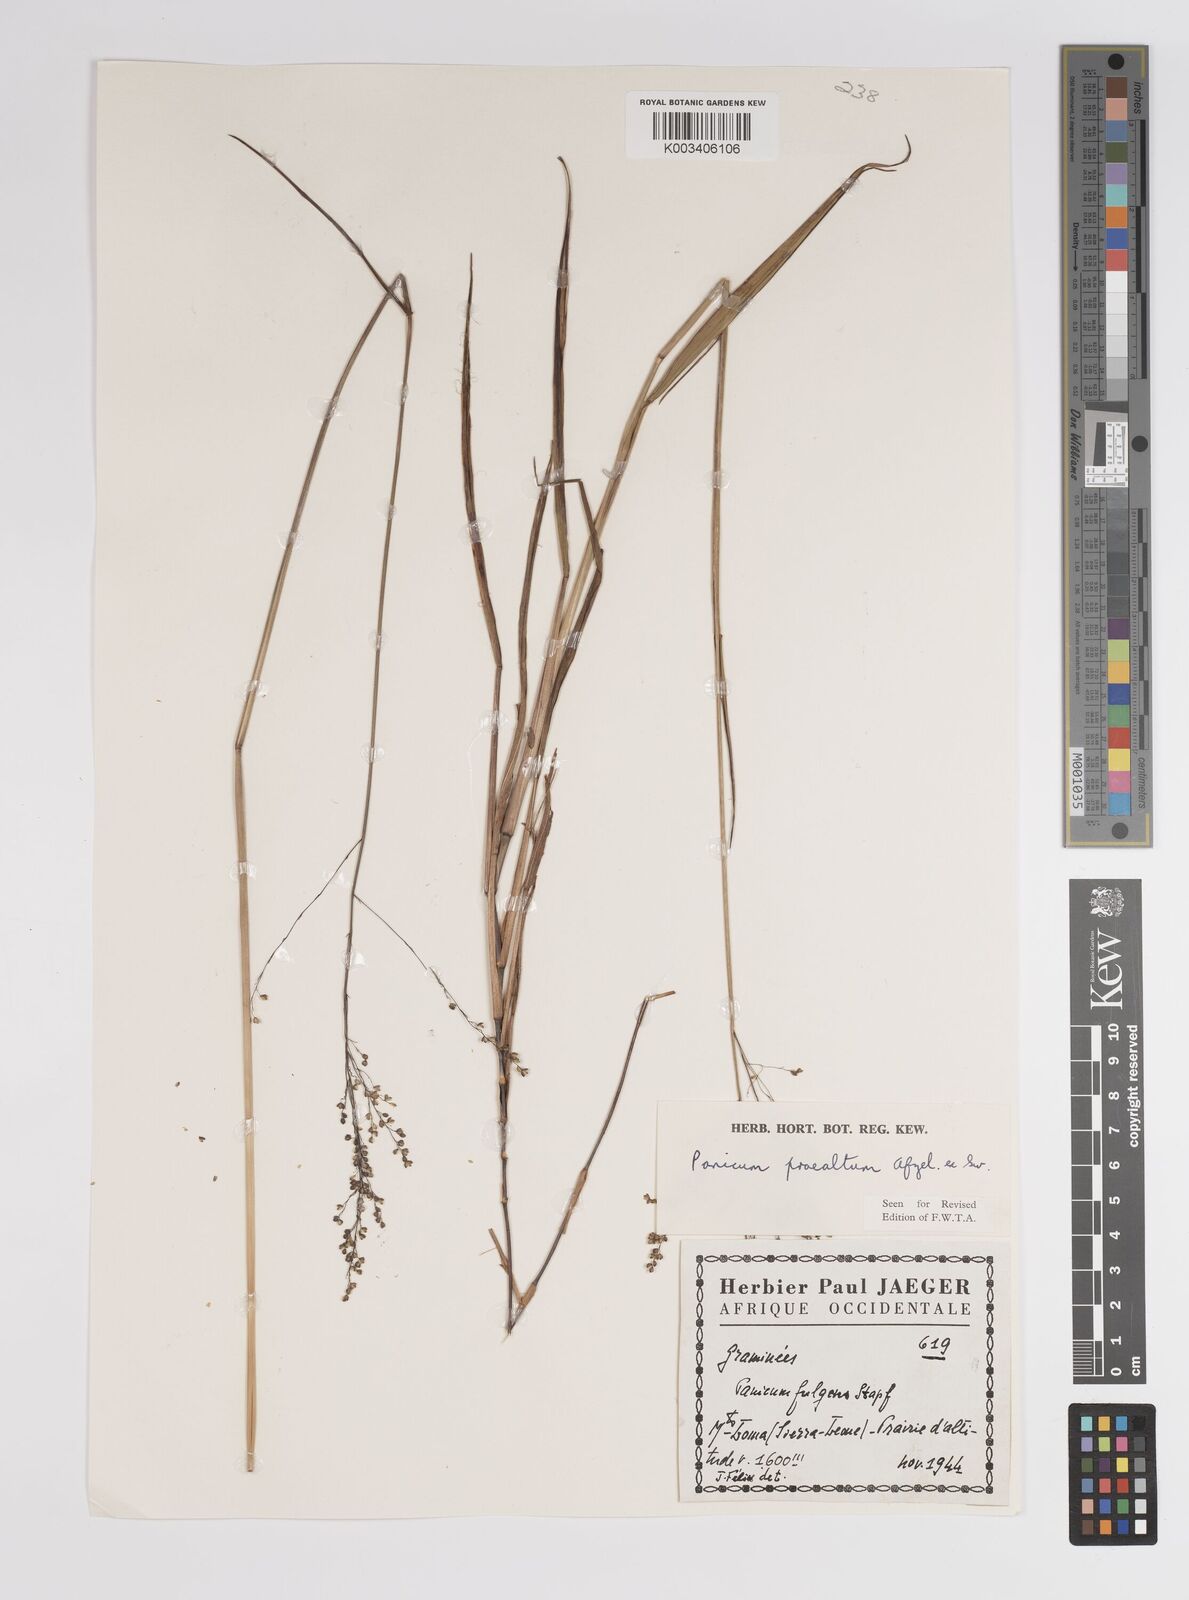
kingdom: Plantae
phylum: Tracheophyta
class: Liliopsida
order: Poales
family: Poaceae
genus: Trichanthecium
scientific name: Trichanthecium nervatum
